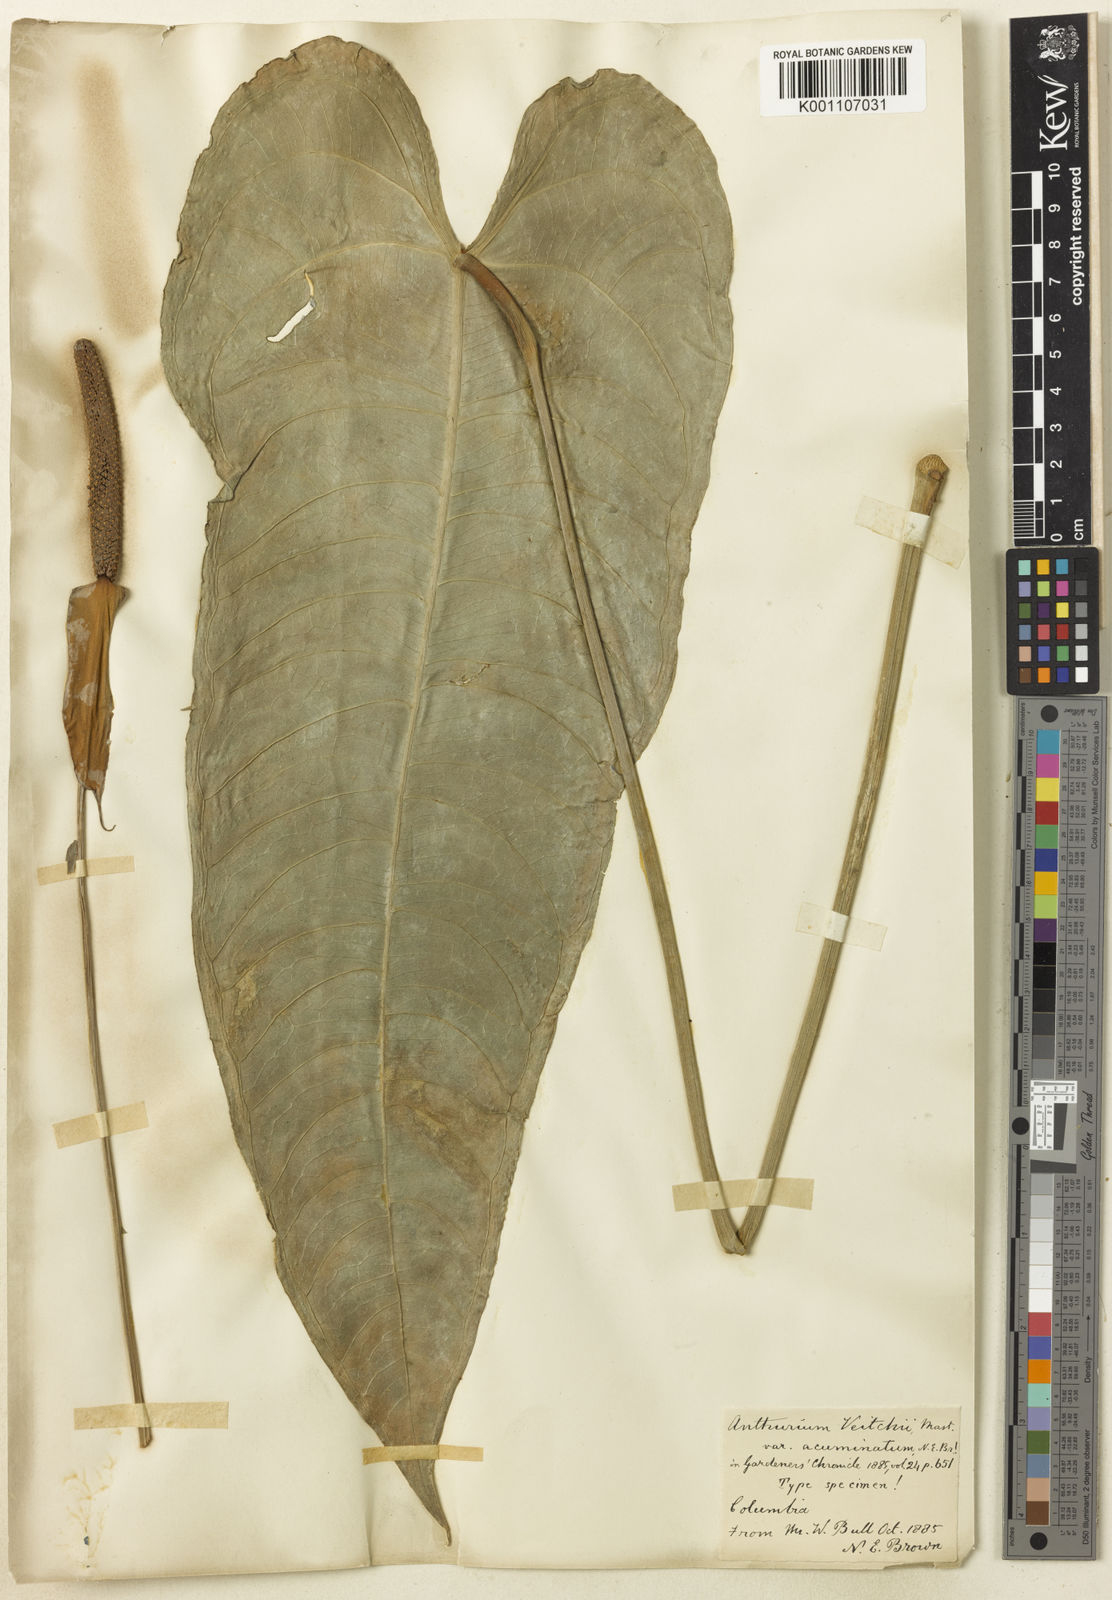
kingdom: Plantae
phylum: Tracheophyta
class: Liliopsida
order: Alismatales
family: Araceae
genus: Anthurium
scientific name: Anthurium veitchii
